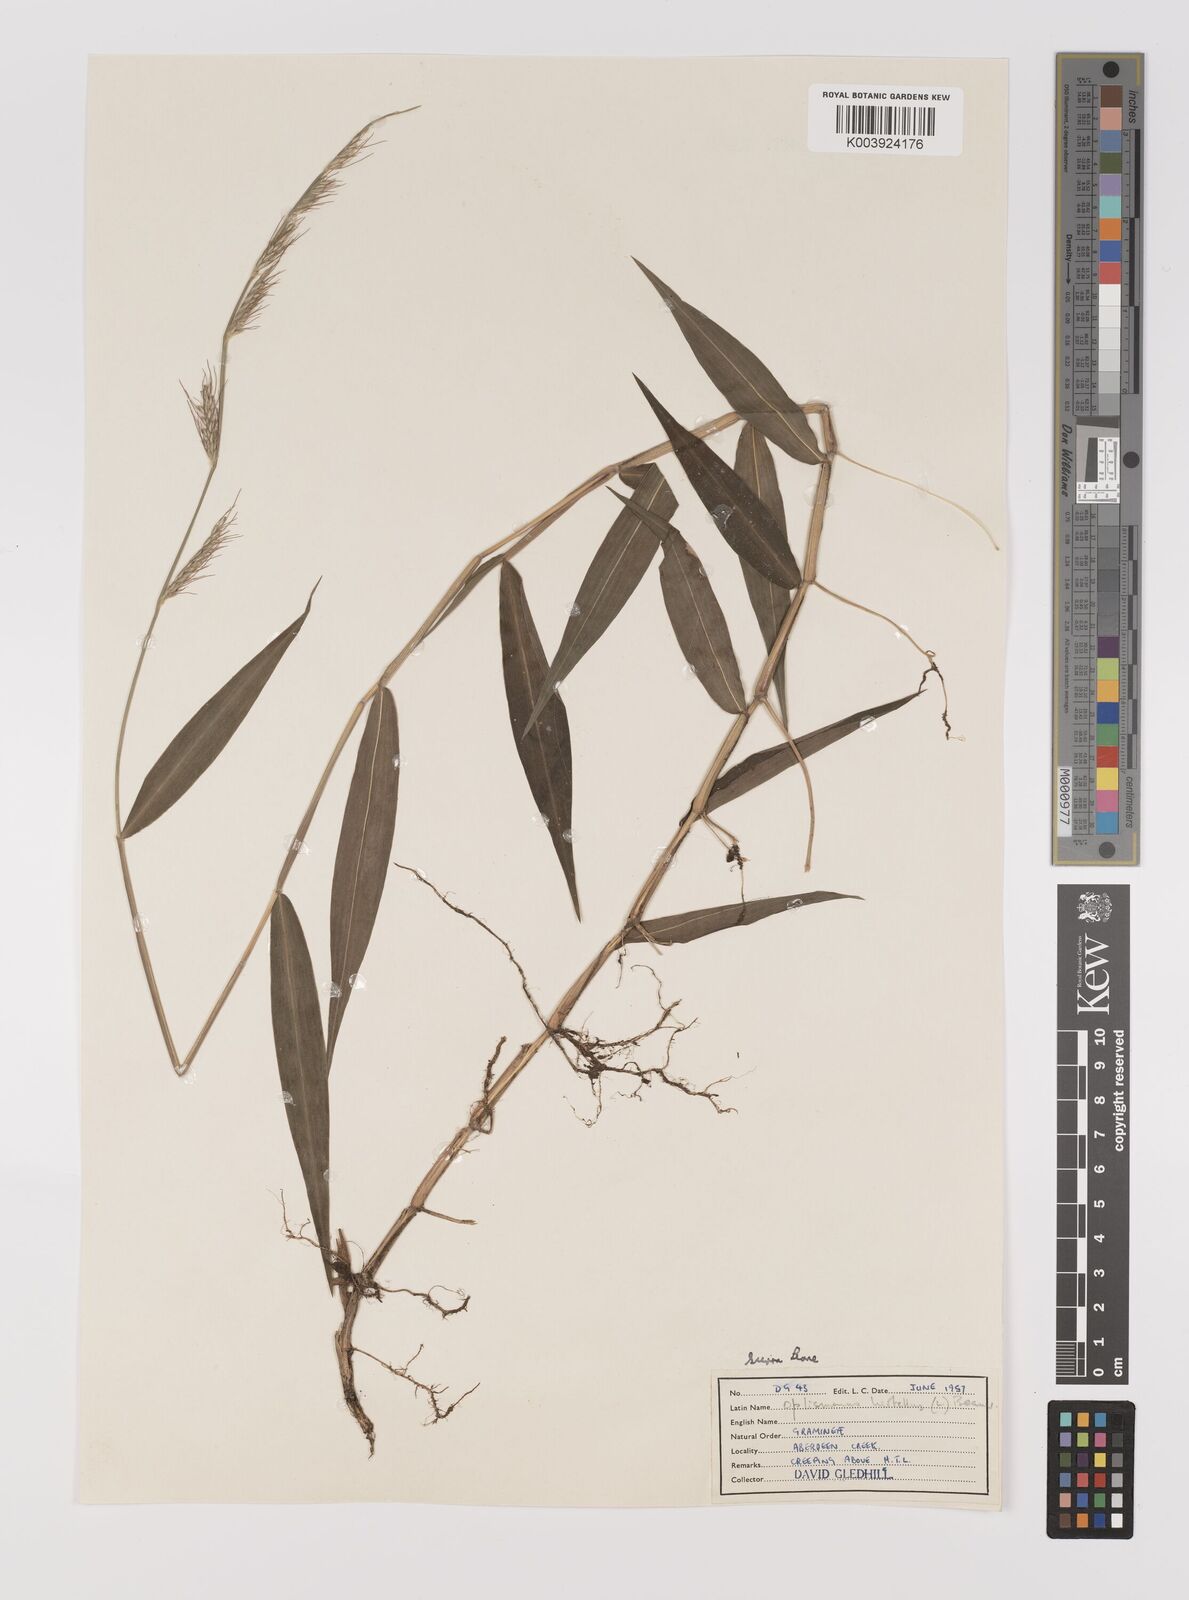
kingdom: Plantae
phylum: Tracheophyta
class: Liliopsida
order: Poales
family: Poaceae
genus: Oplismenus
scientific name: Oplismenus hirtellus
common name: Basketgrass
